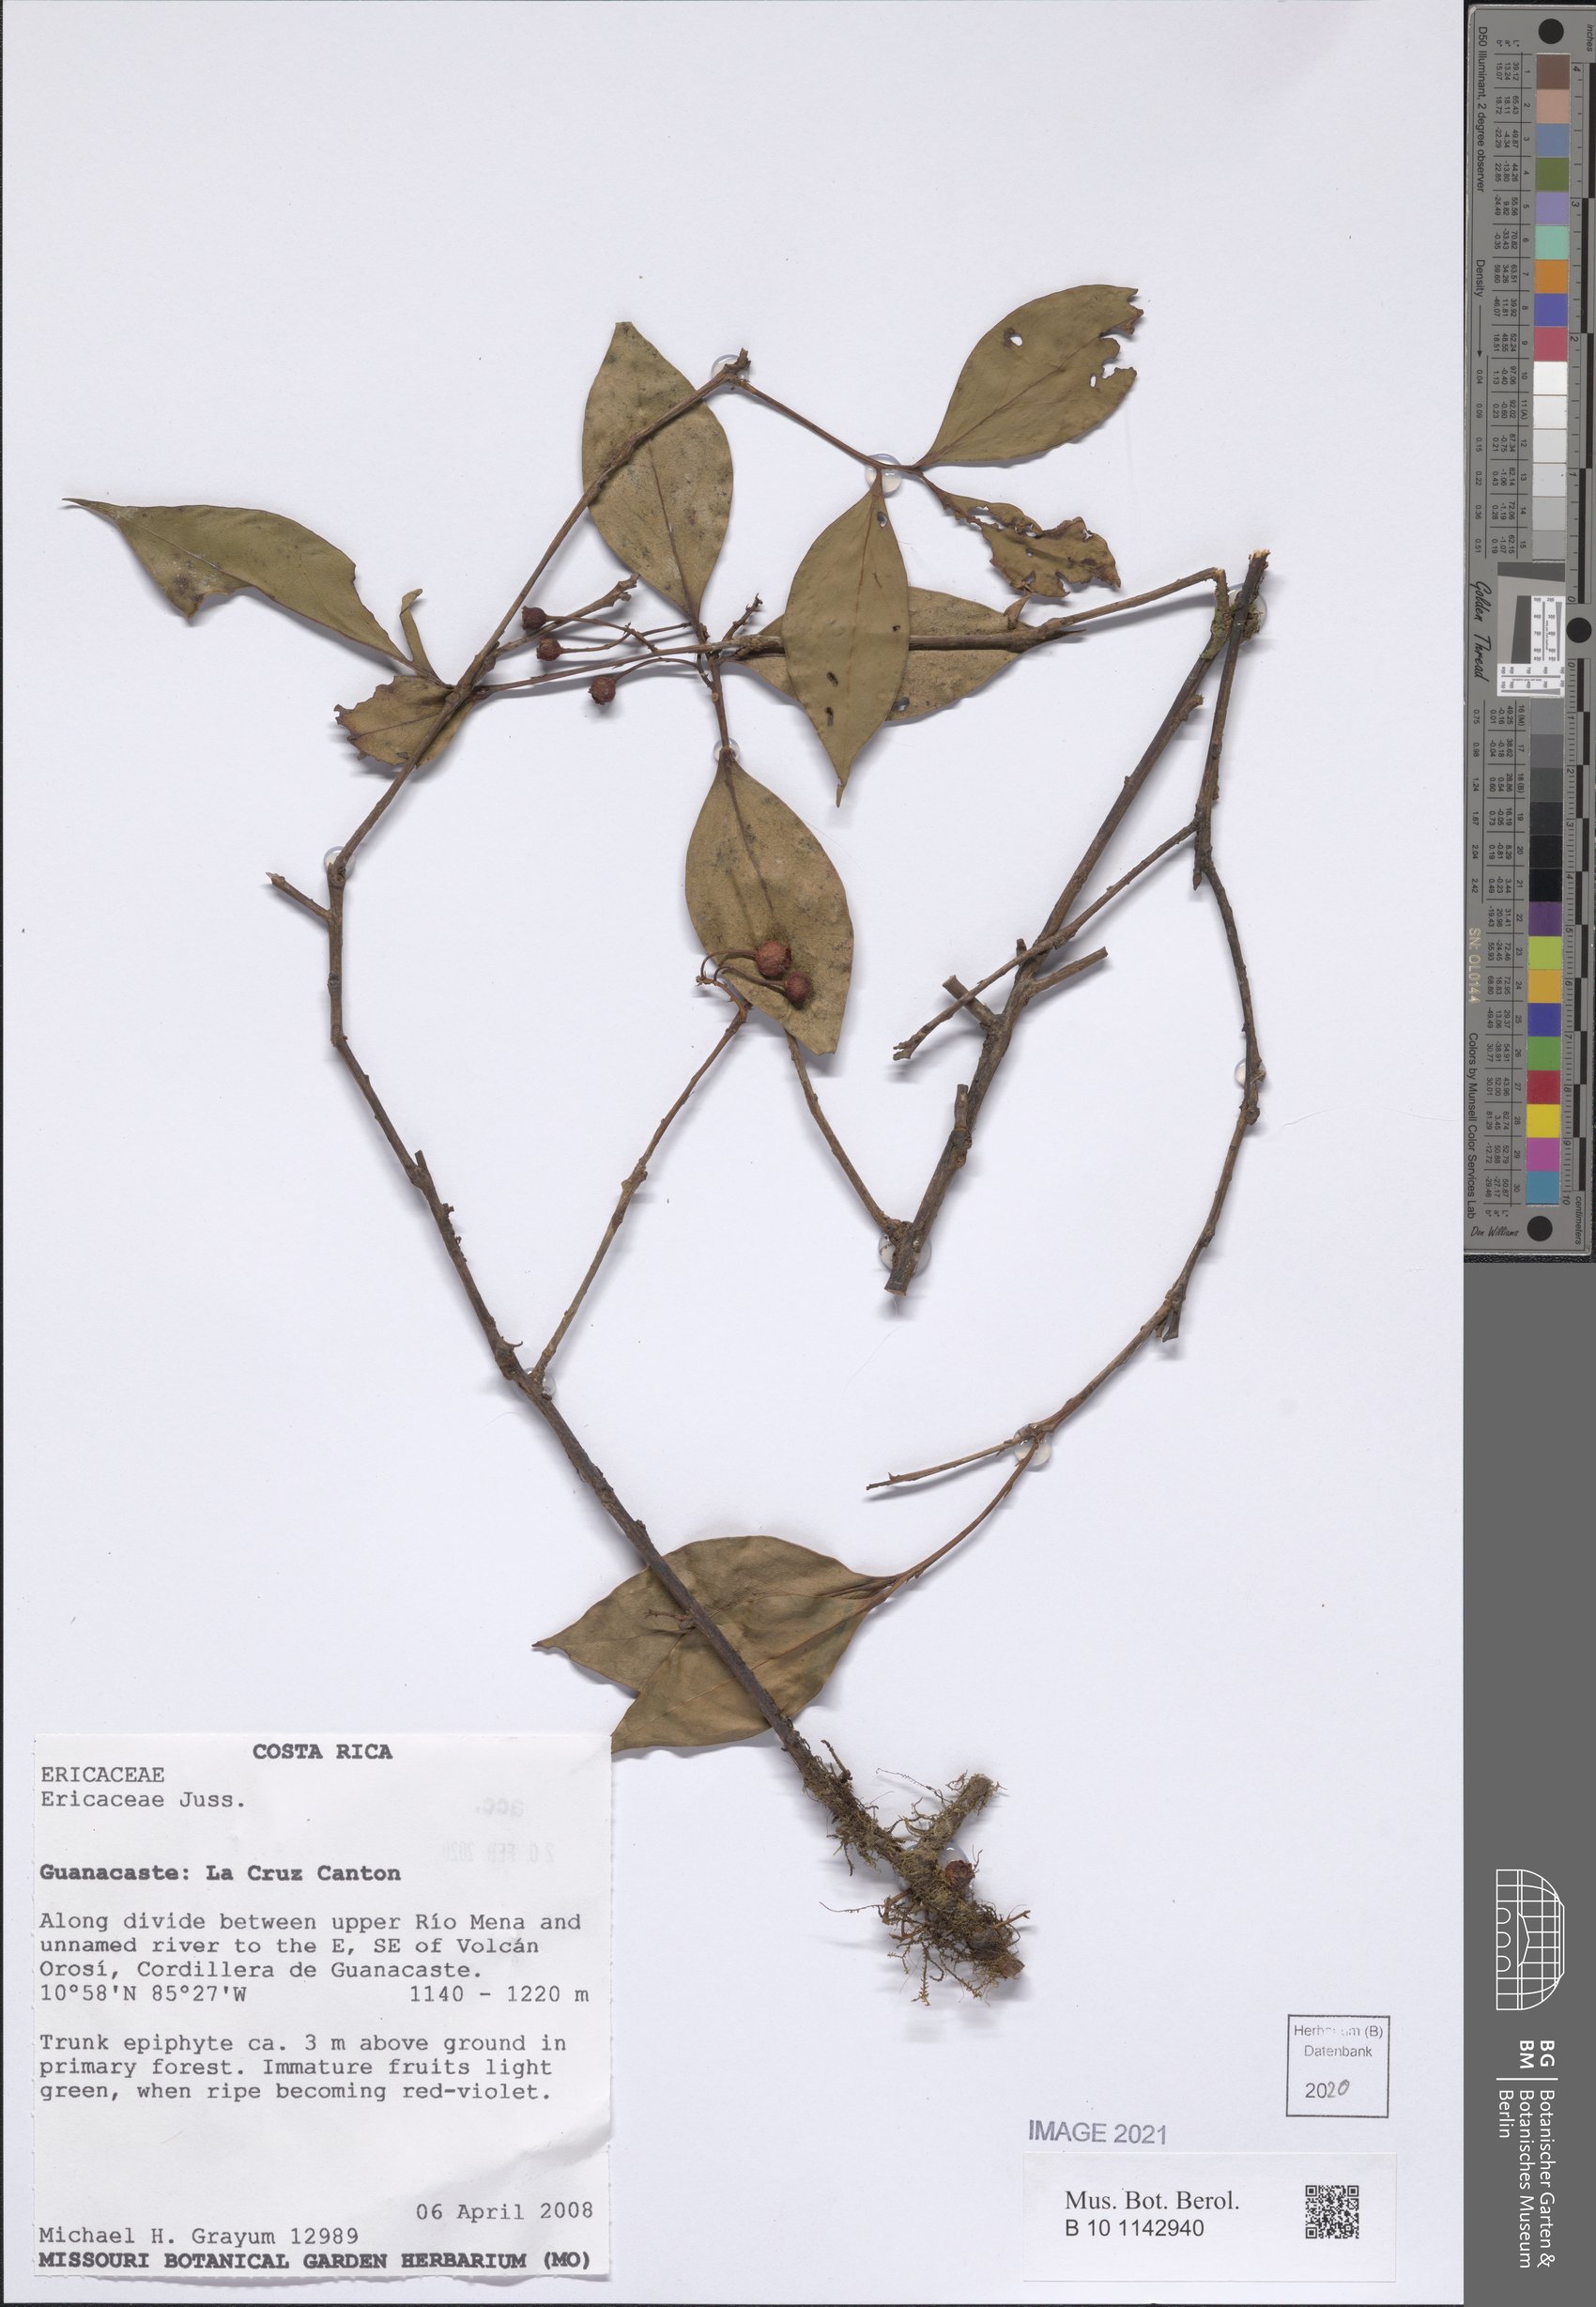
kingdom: Plantae
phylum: Tracheophyta
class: Magnoliopsida
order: Ericales
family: Ericaceae
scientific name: Ericaceae
